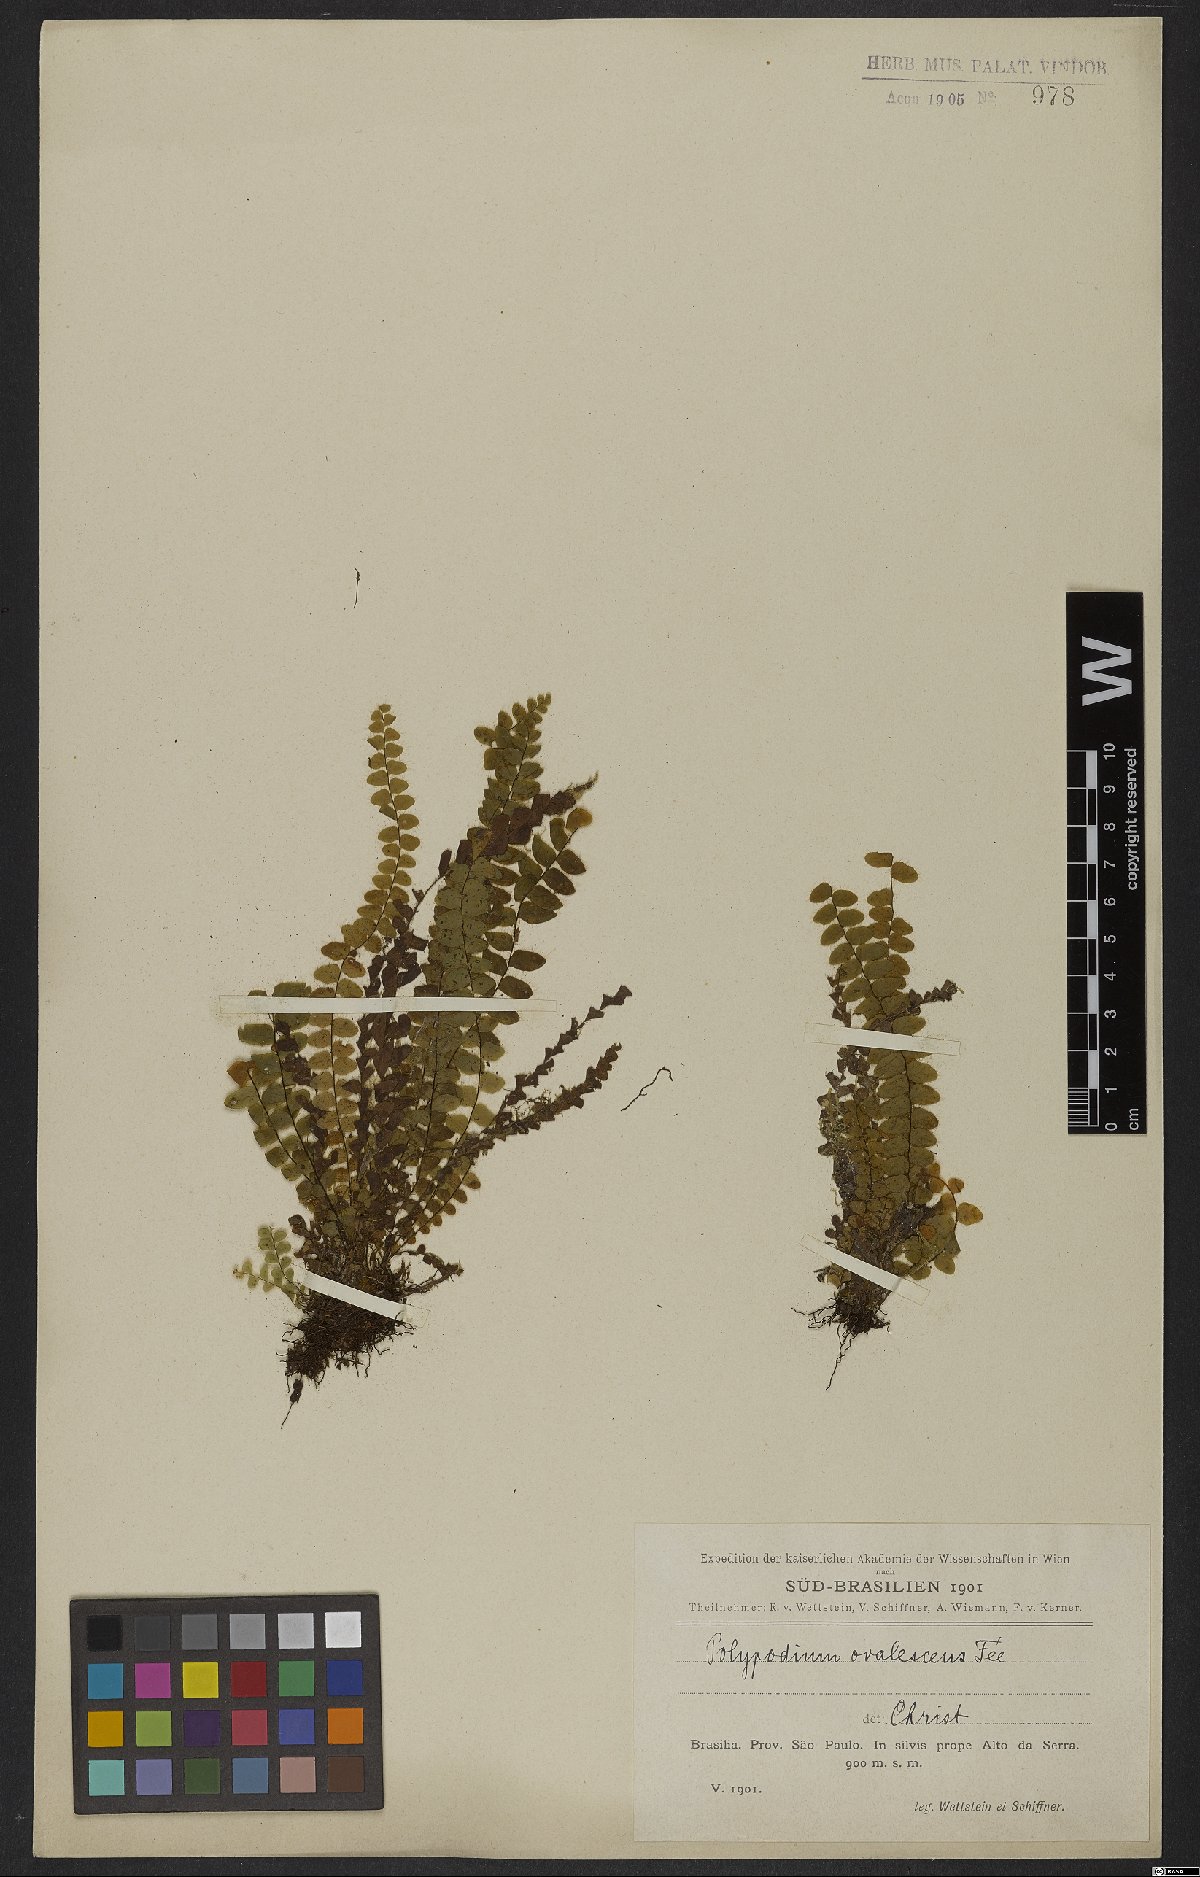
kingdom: Plantae
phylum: Tracheophyta
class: Polypodiopsida
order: Polypodiales
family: Polypodiaceae
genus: Alansmia
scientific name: Alansmia reclinata
